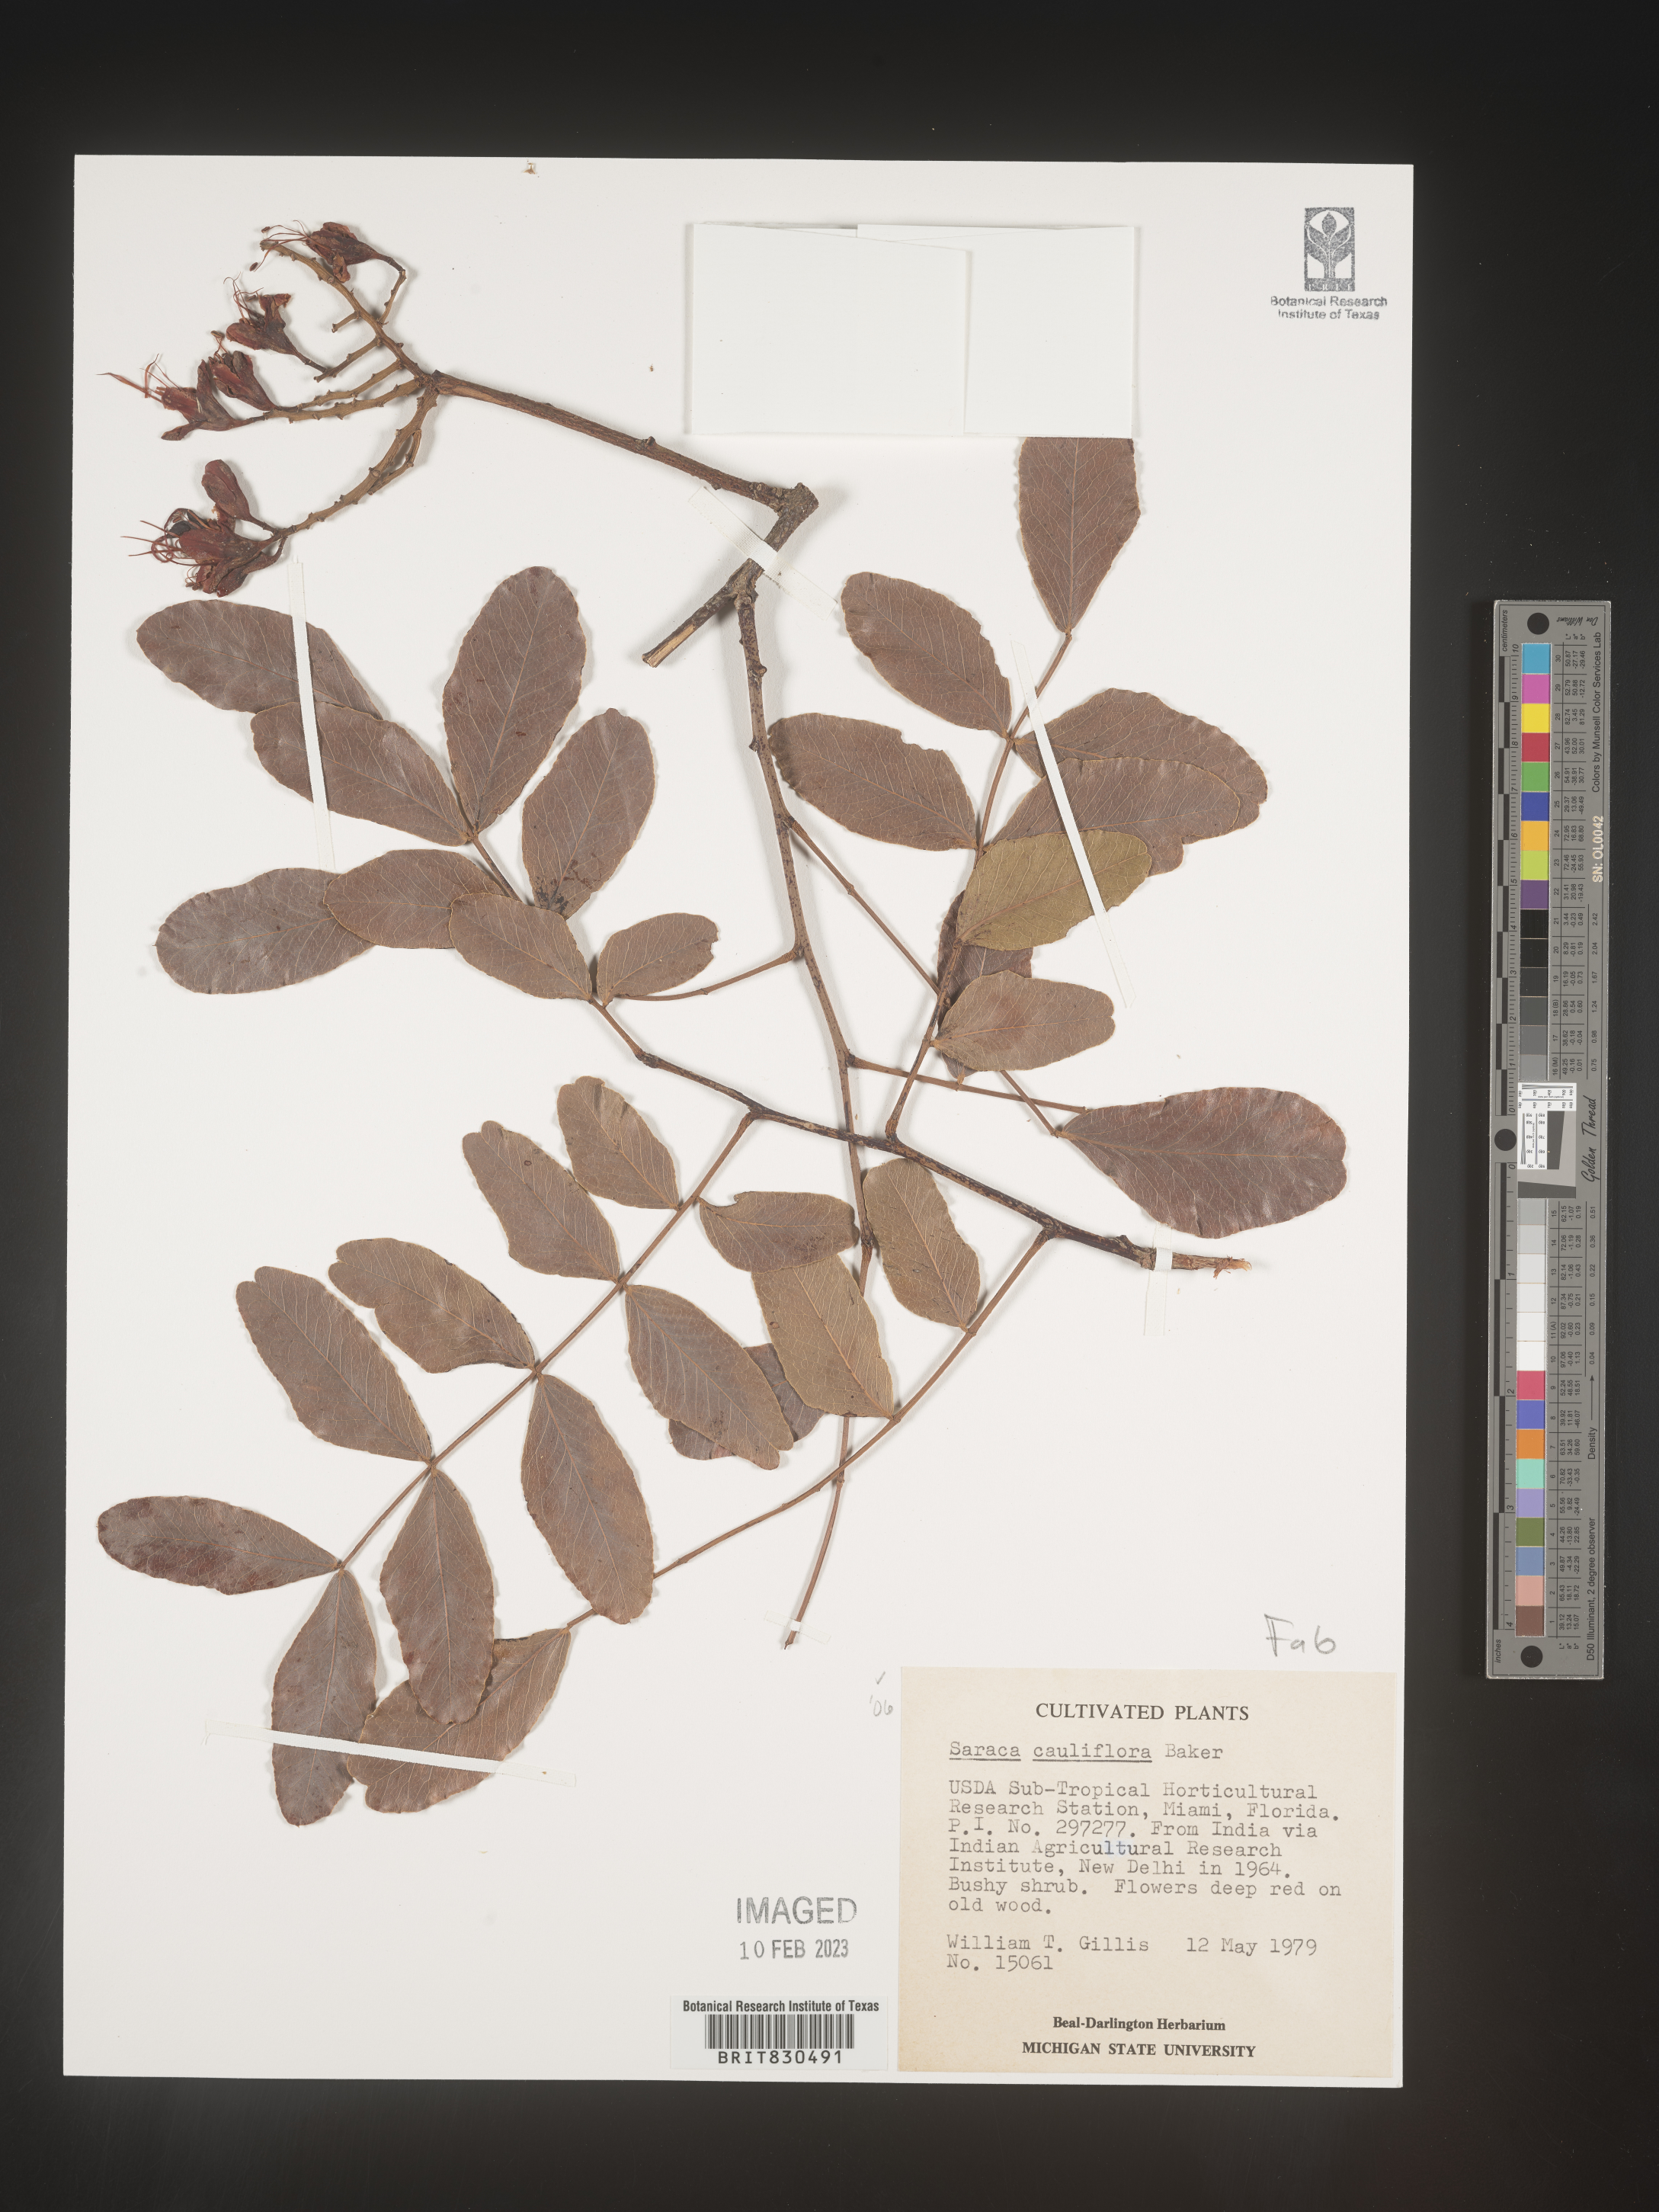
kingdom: Plantae
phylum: Tracheophyta
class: Magnoliopsida
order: Fabales
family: Fabaceae
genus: Saraca
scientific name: Saraca declinata
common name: Red saraca
